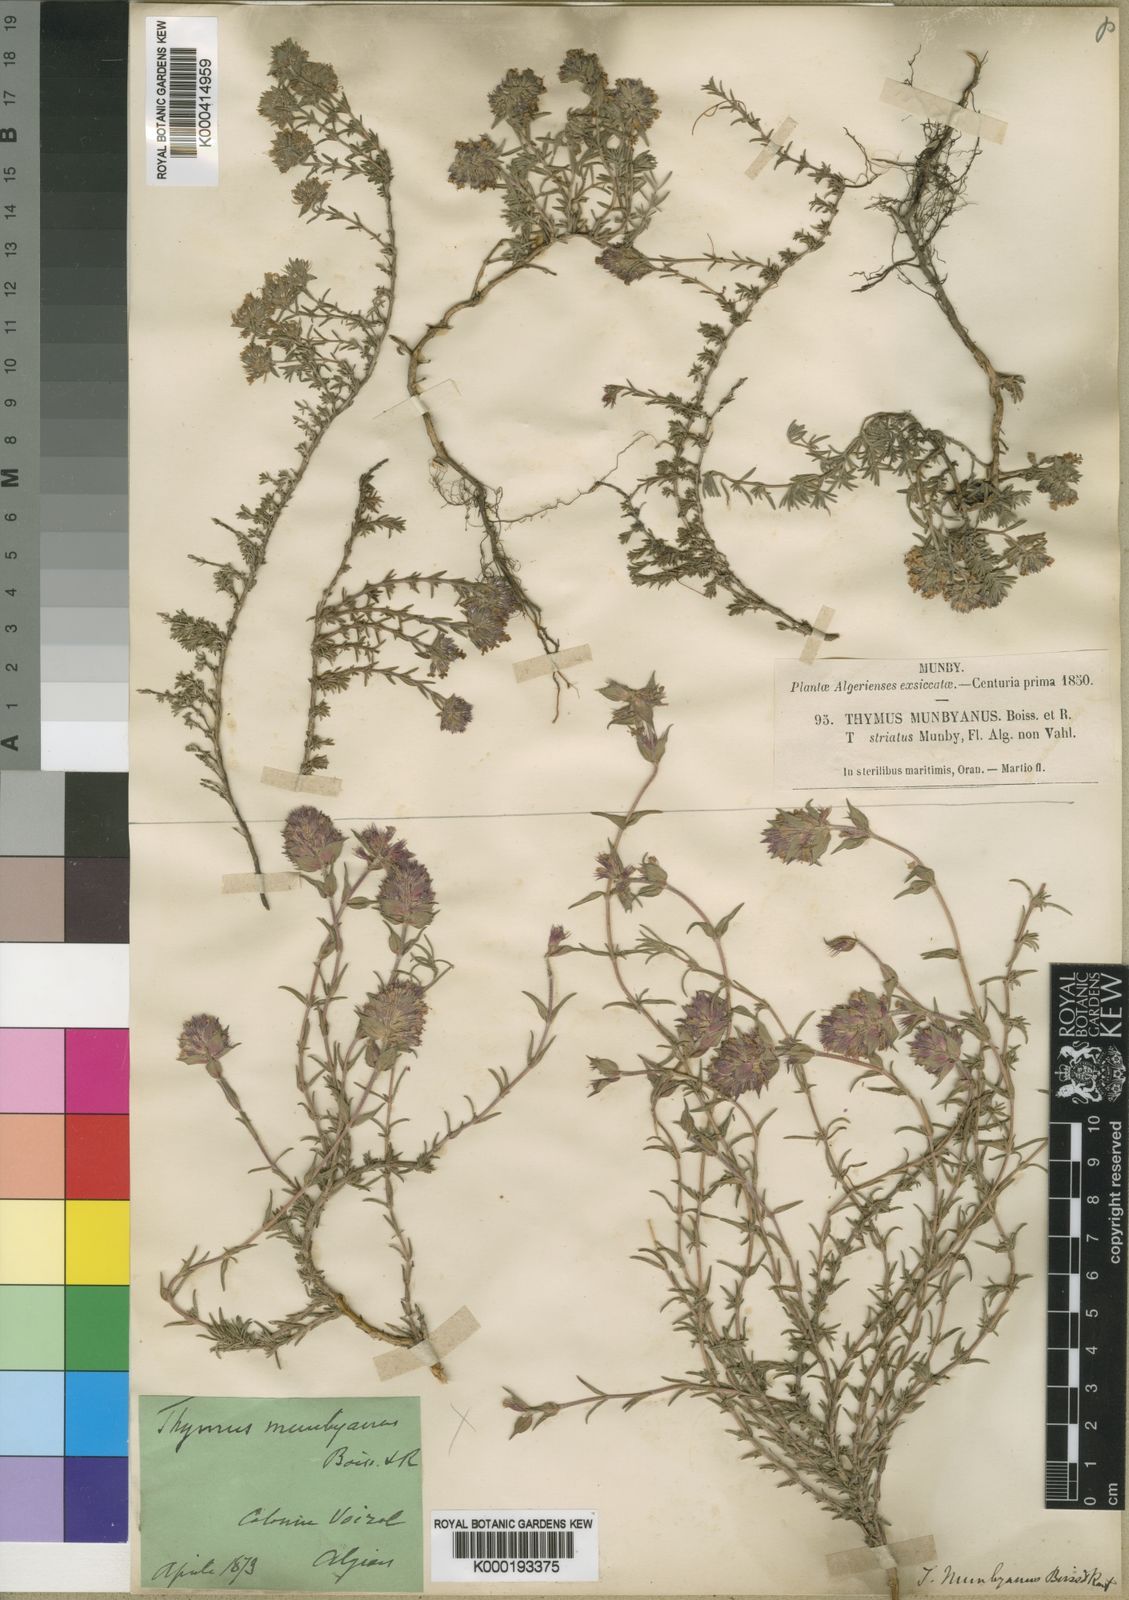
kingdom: Plantae
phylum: Tracheophyta
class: Magnoliopsida
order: Lamiales
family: Lamiaceae
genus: Thymus
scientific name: Thymus munbyanus
